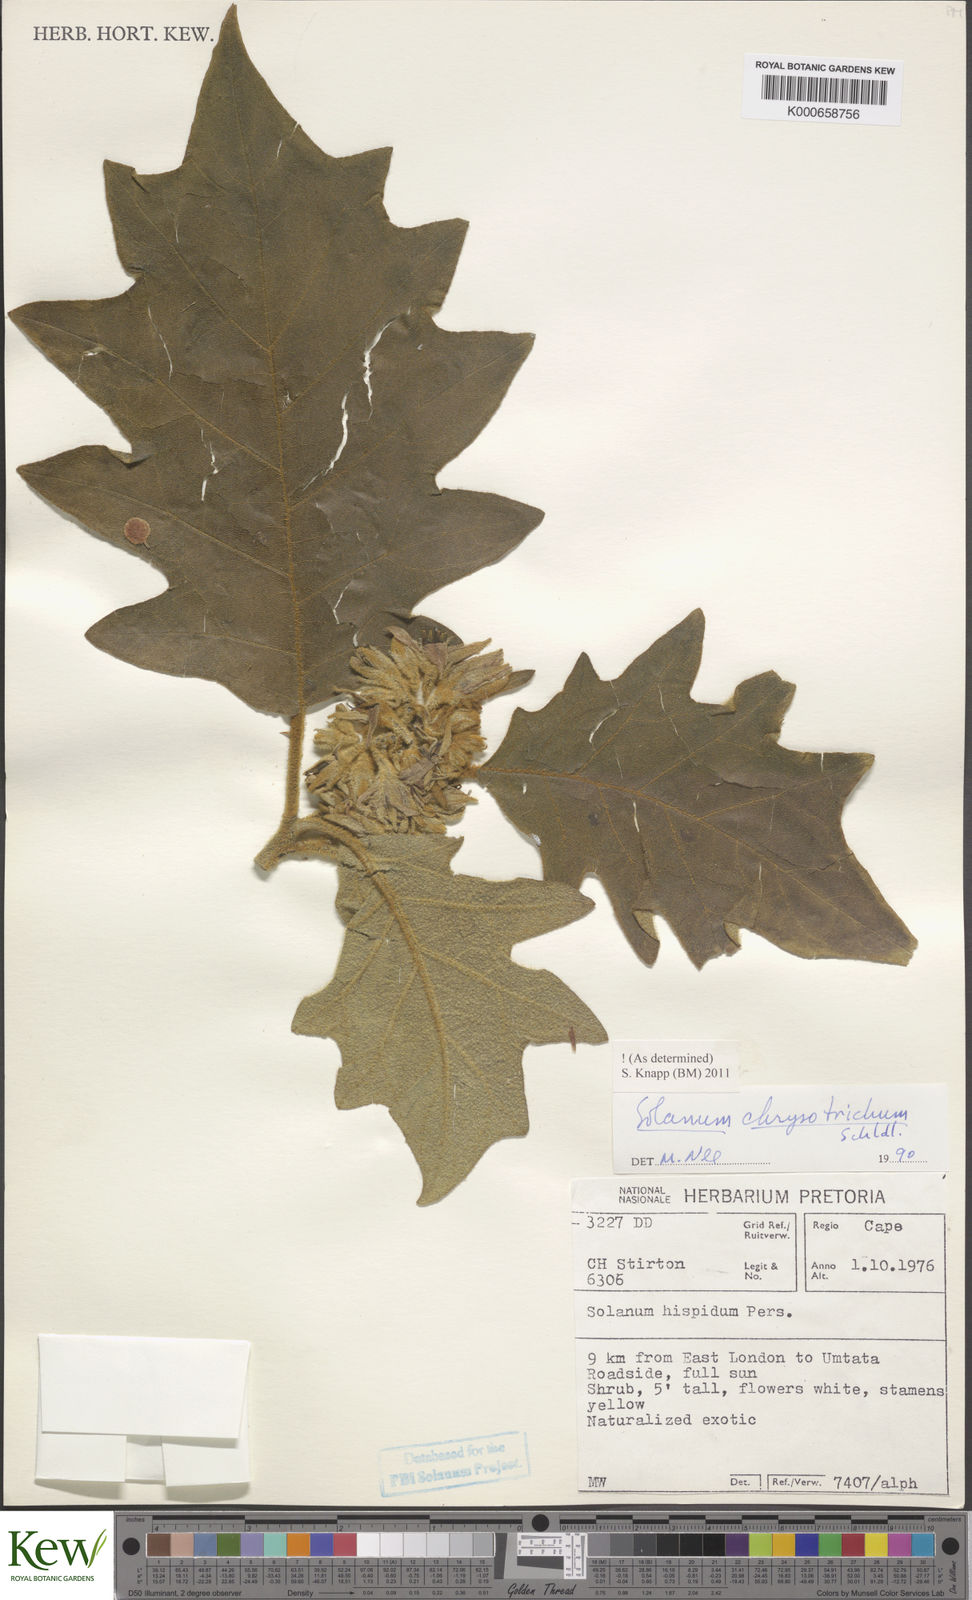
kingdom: Plantae
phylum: Tracheophyta
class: Magnoliopsida
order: Solanales
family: Solanaceae
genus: Solanum
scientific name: Solanum chrysotrichum
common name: Nightshade
